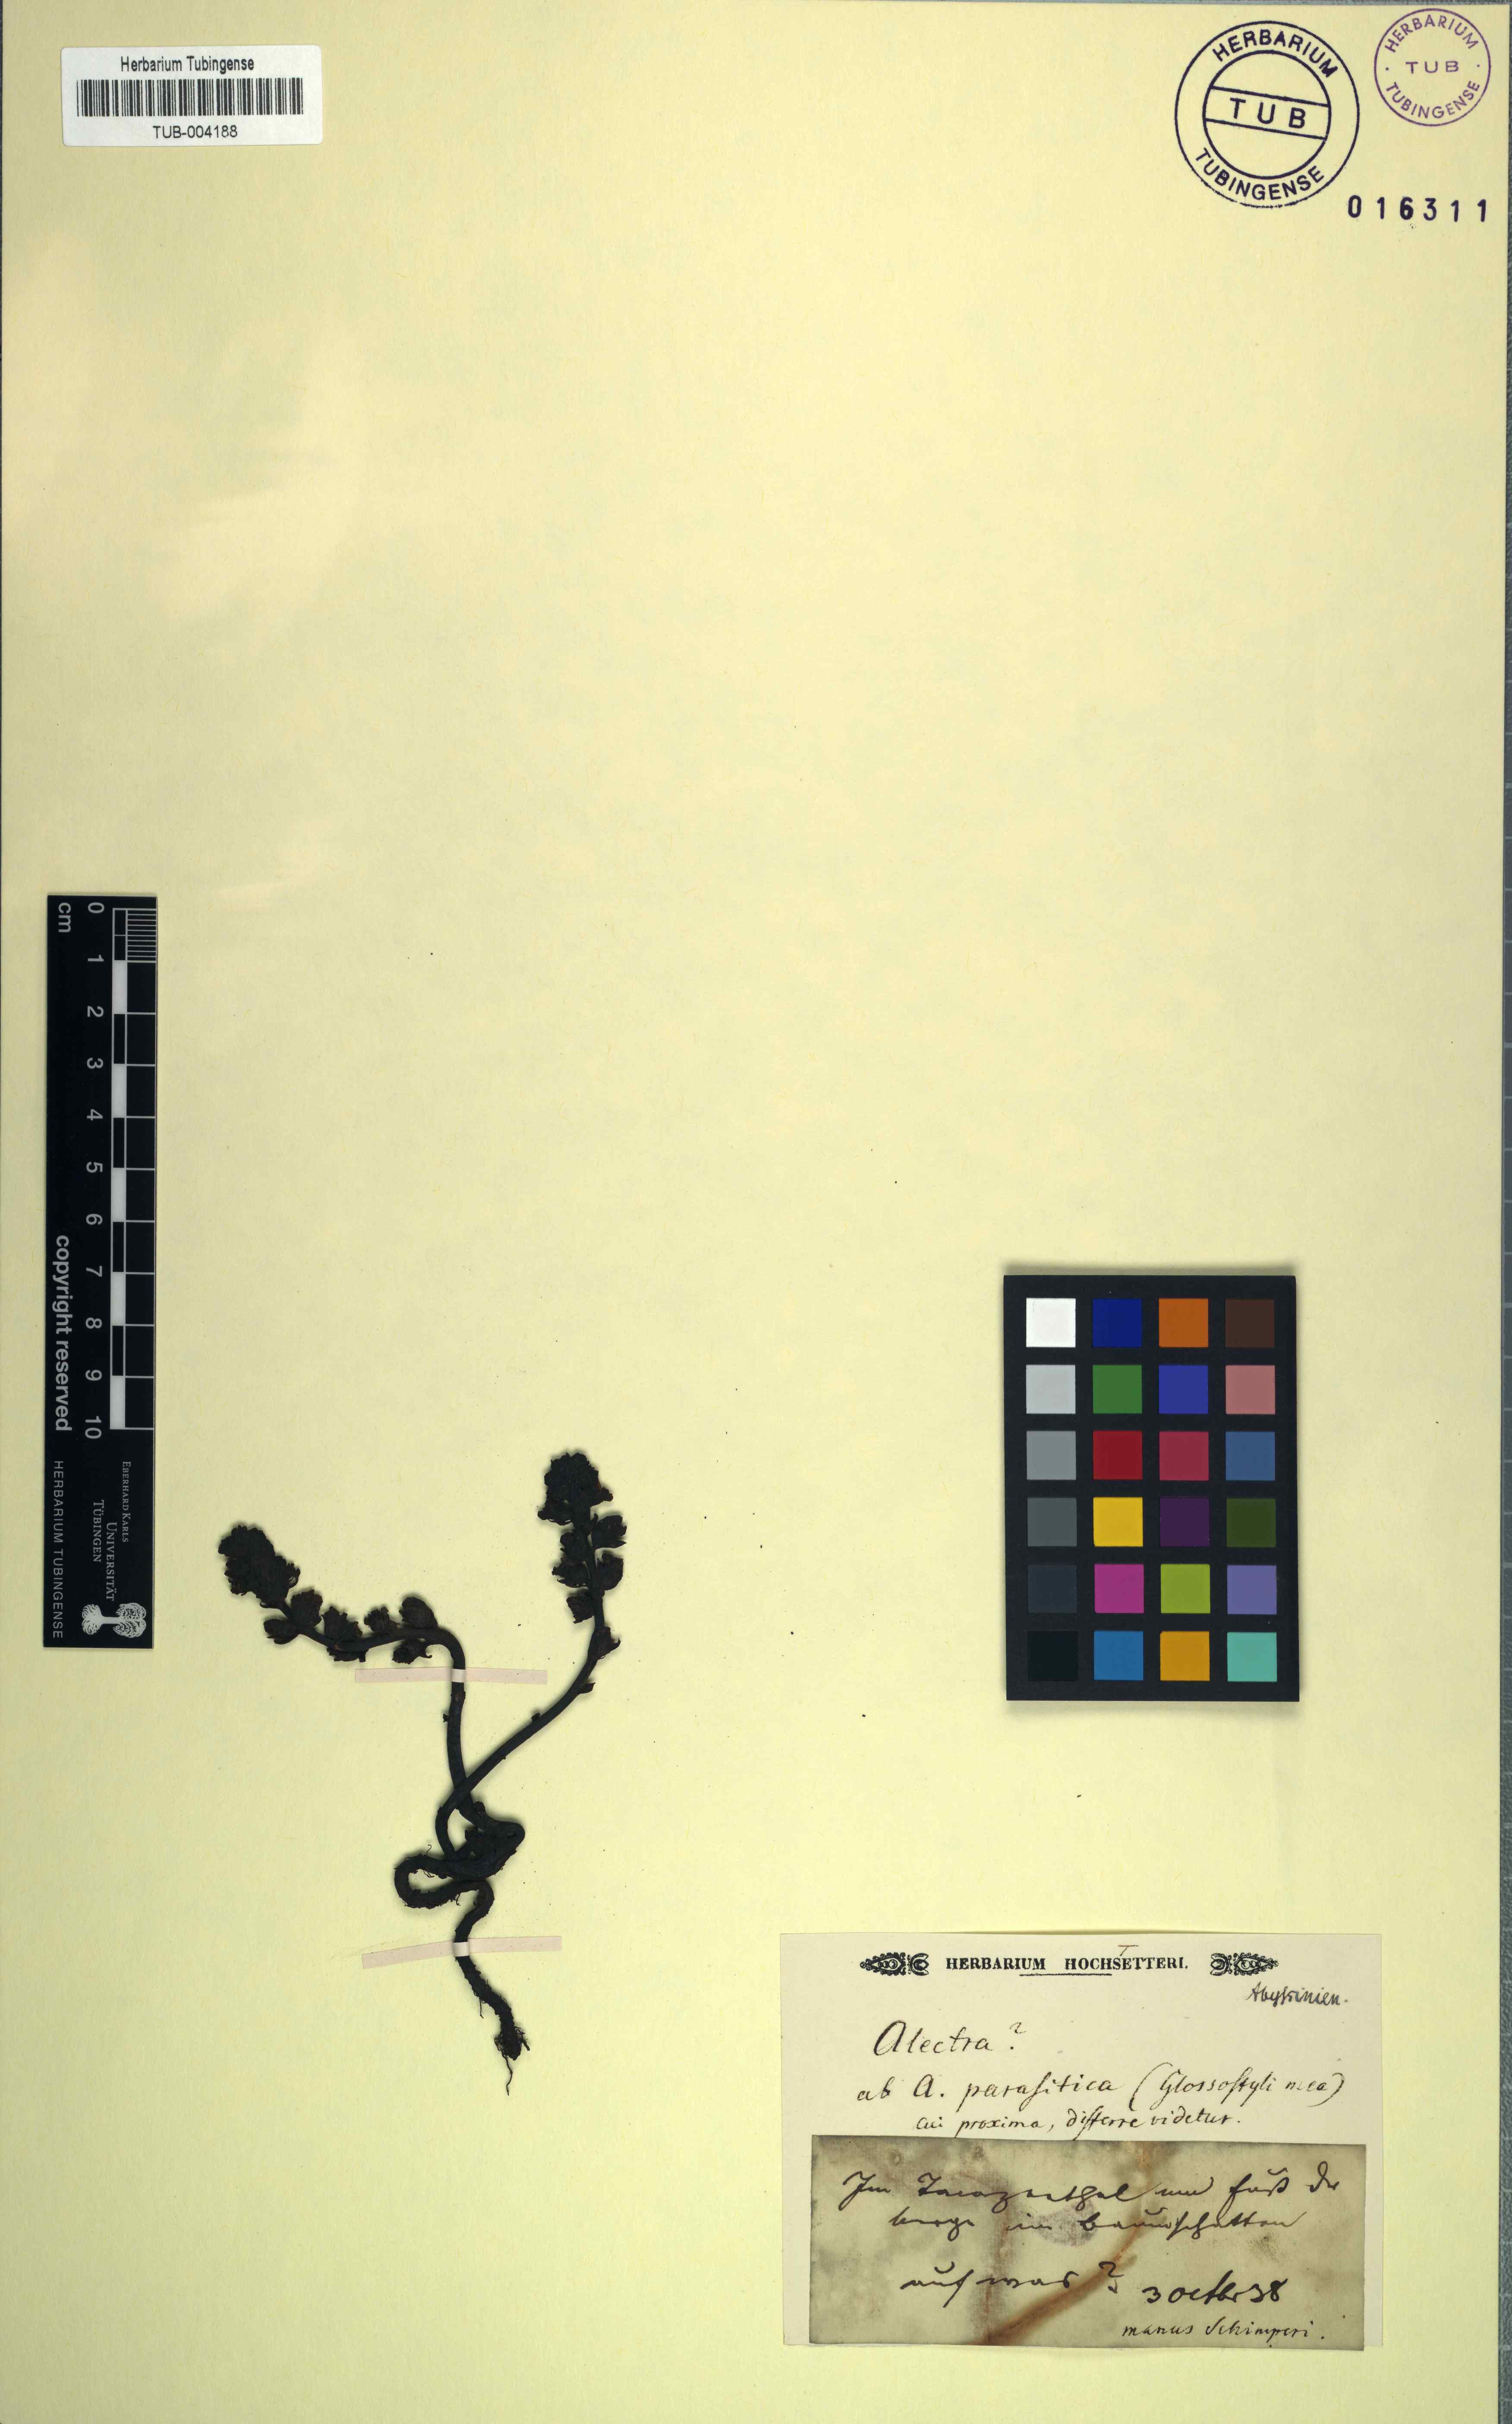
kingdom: Plantae
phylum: Tracheophyta
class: Magnoliopsida
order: Lamiales
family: Orobanchaceae
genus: Alectra
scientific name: Alectra
